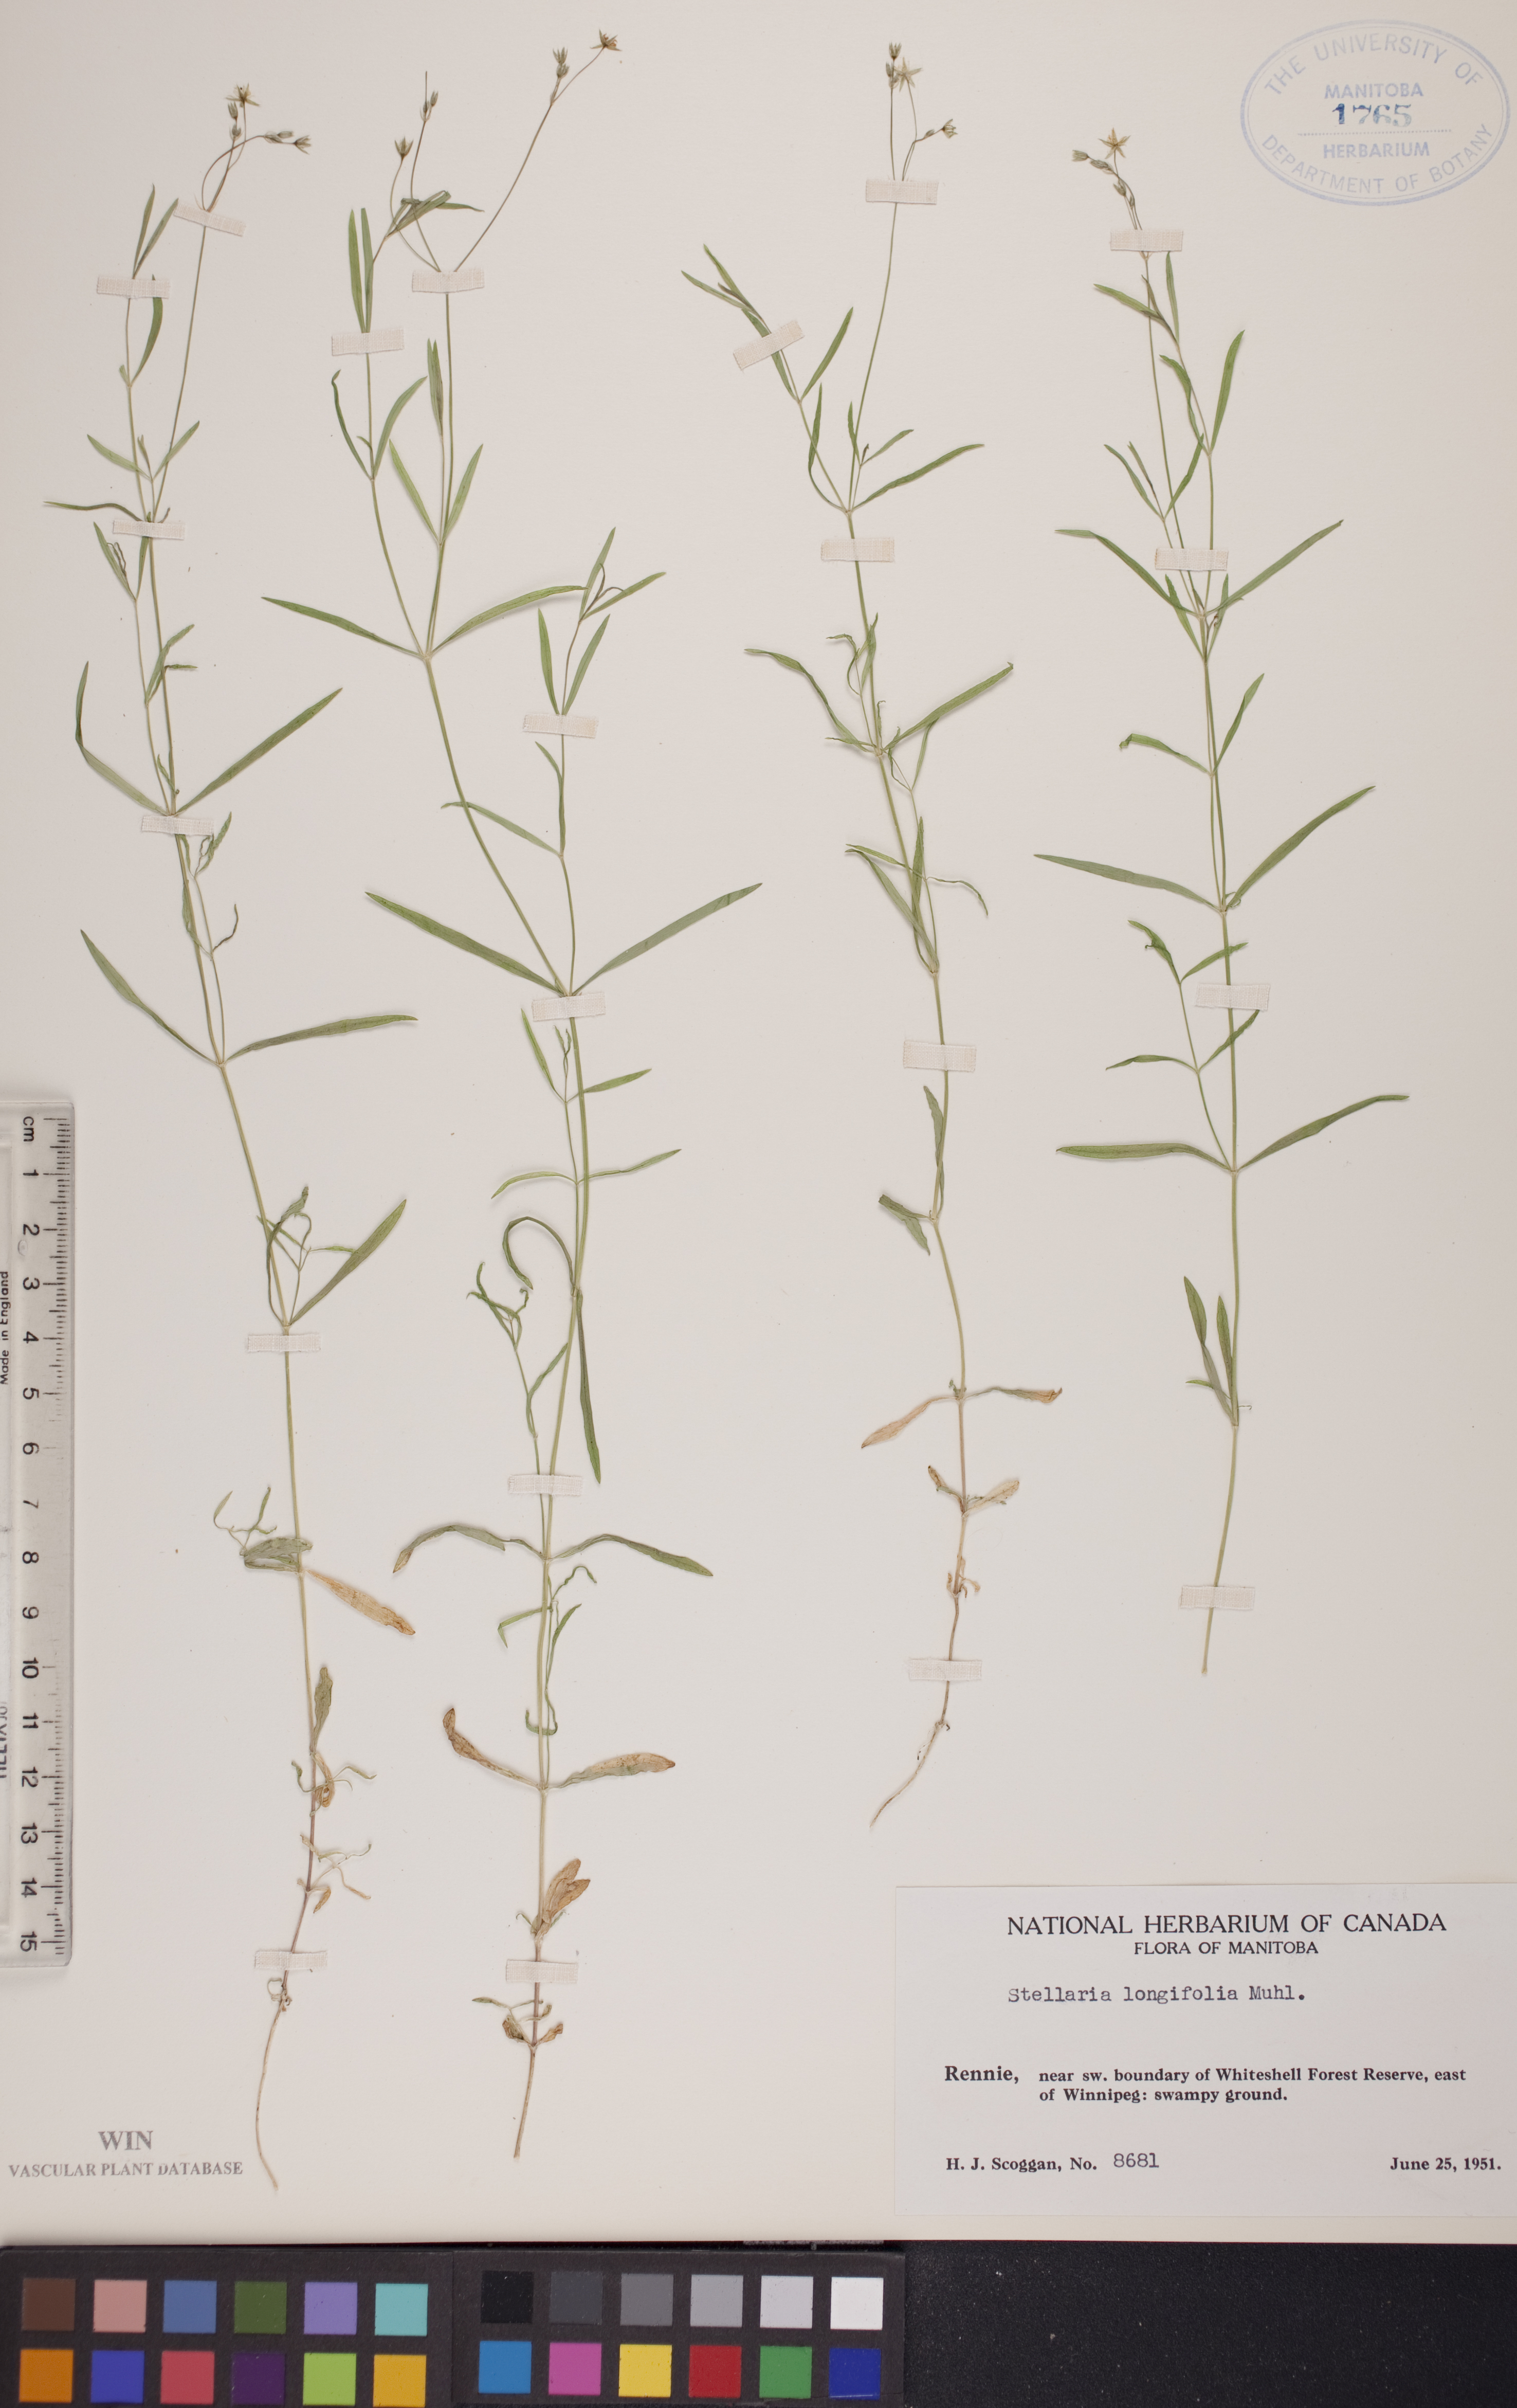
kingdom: Plantae
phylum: Tracheophyta
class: Magnoliopsida
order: Caryophyllales
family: Caryophyllaceae
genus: Stellaria
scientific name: Stellaria longifolia
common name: Long-leaved chickweed
